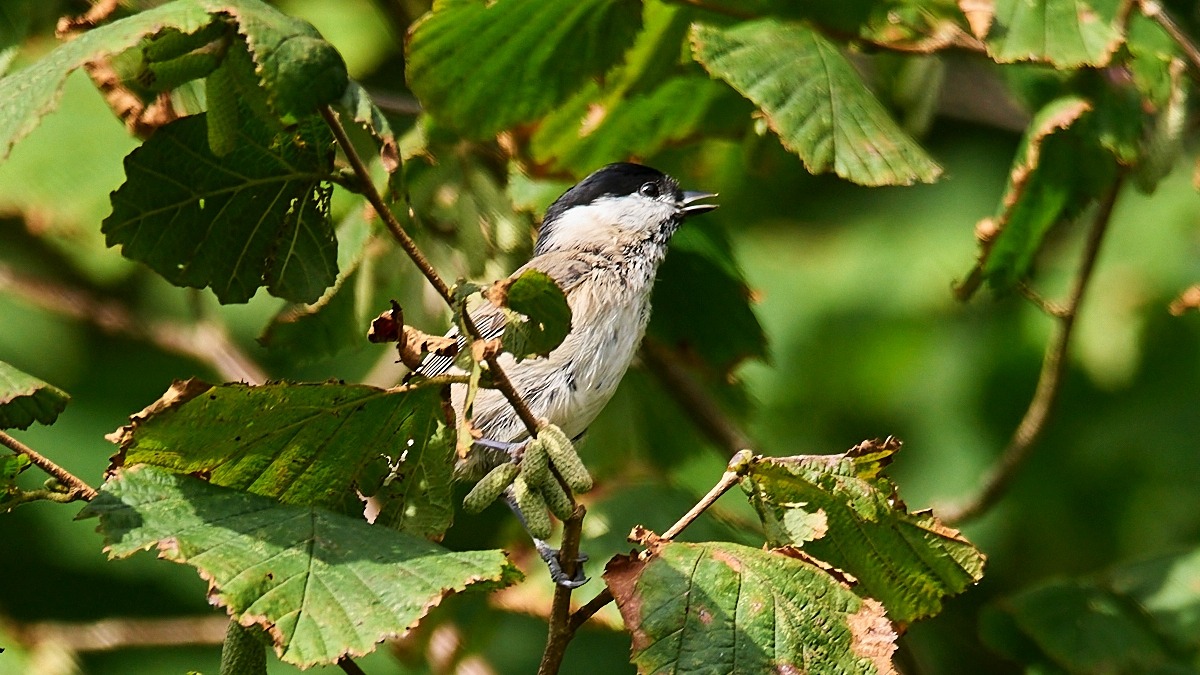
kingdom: Animalia
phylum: Chordata
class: Aves
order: Passeriformes
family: Paridae
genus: Poecile
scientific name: Poecile palustris
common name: Sumpmejse
